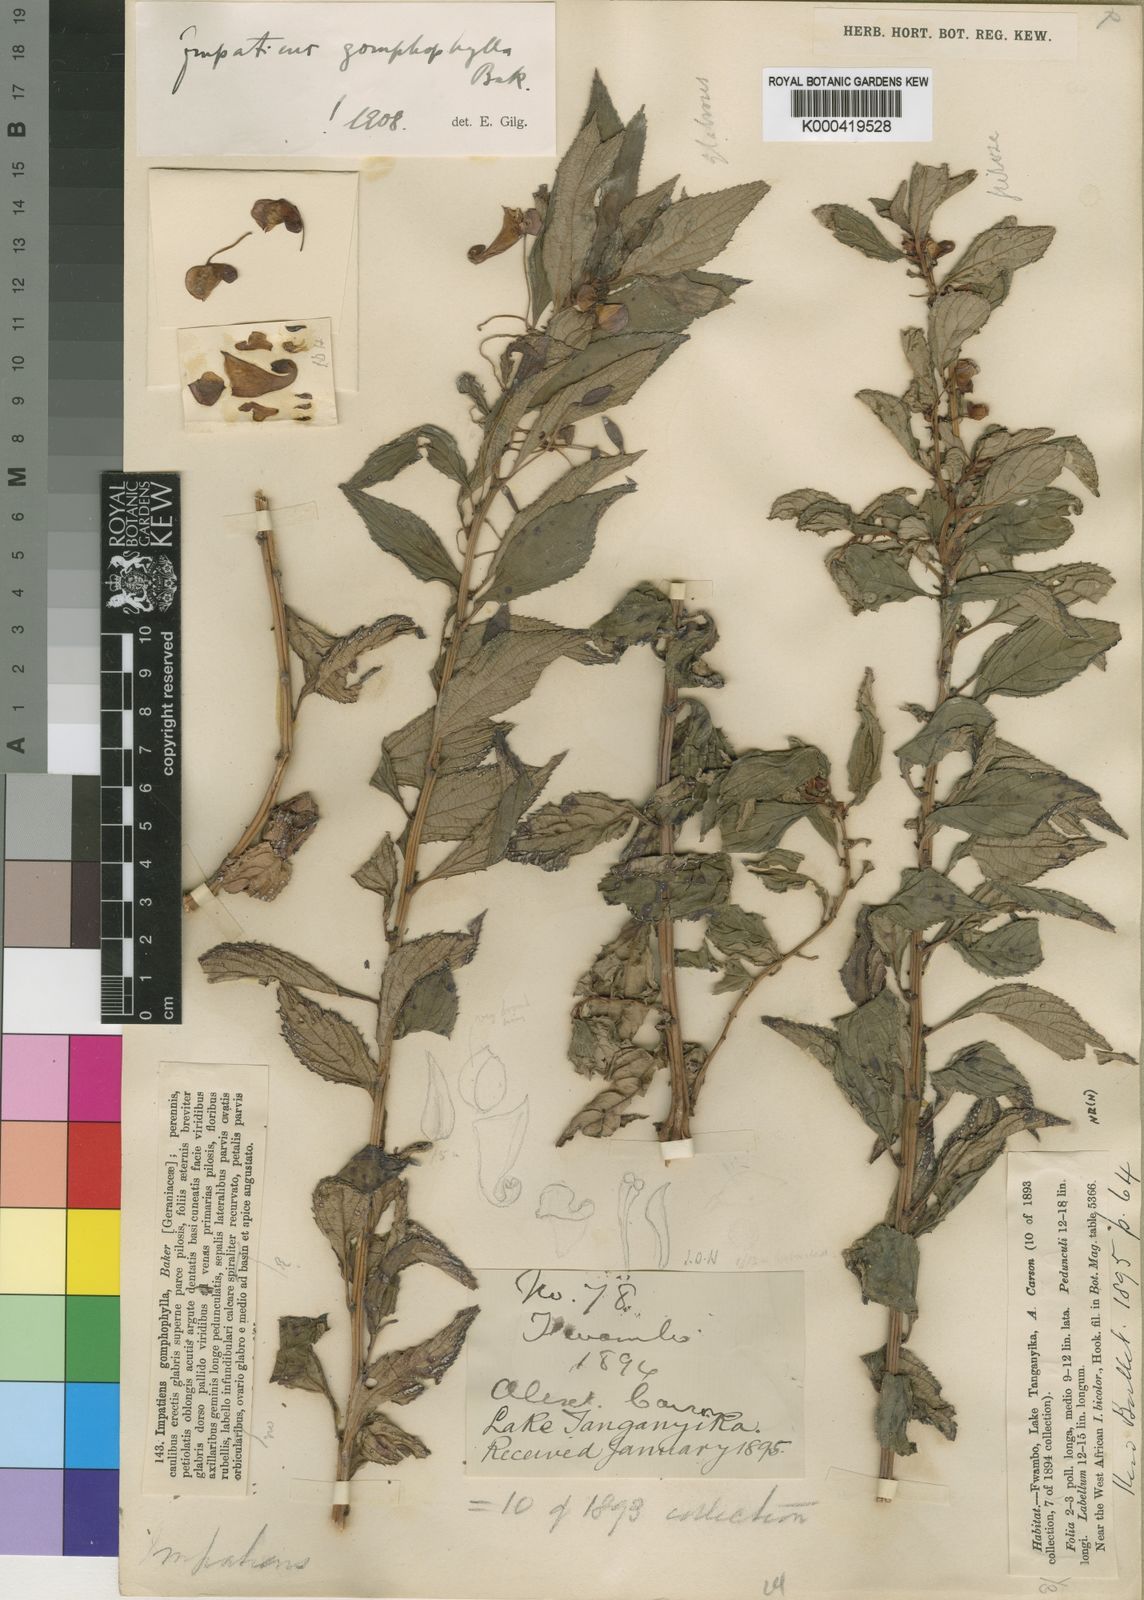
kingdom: Plantae
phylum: Tracheophyta
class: Magnoliopsida
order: Ericales
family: Balsaminaceae
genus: Impatiens
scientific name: Impatiens gomphophylla
